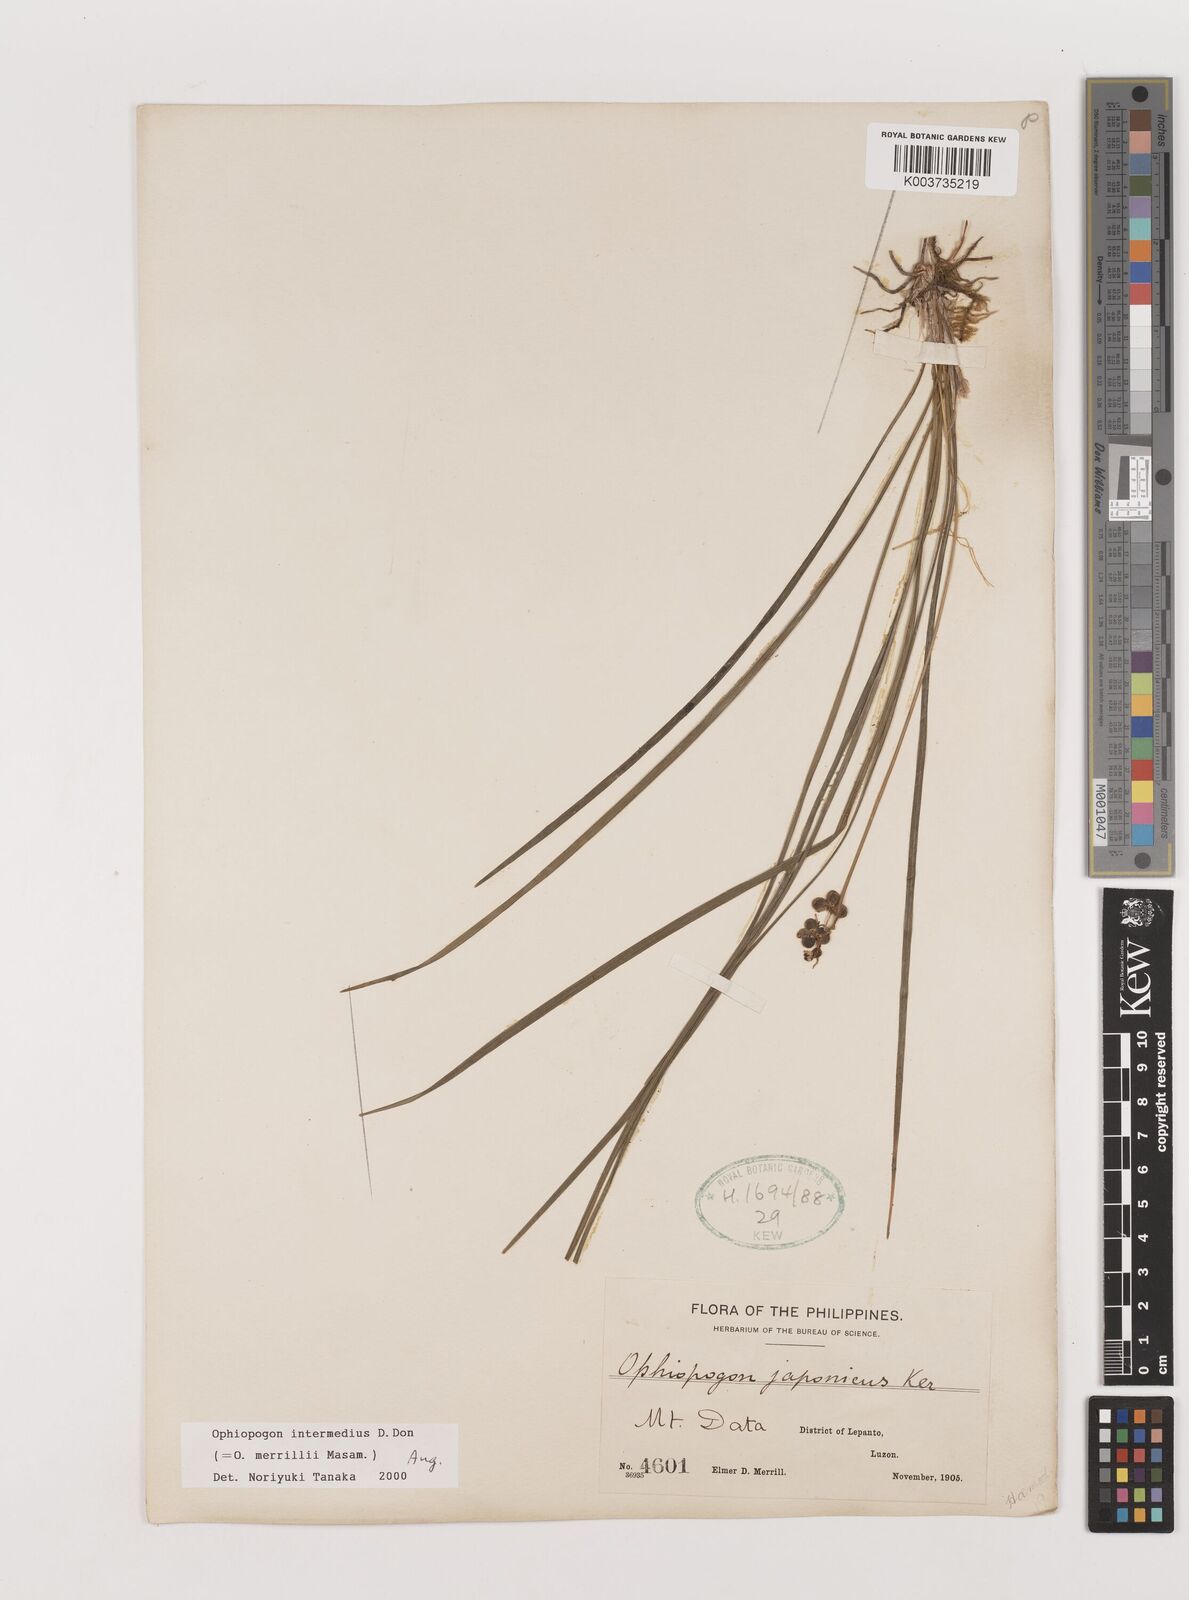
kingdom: Plantae
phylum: Tracheophyta
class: Liliopsida
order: Asparagales
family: Asparagaceae
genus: Ophiopogon
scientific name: Ophiopogon intermedius
